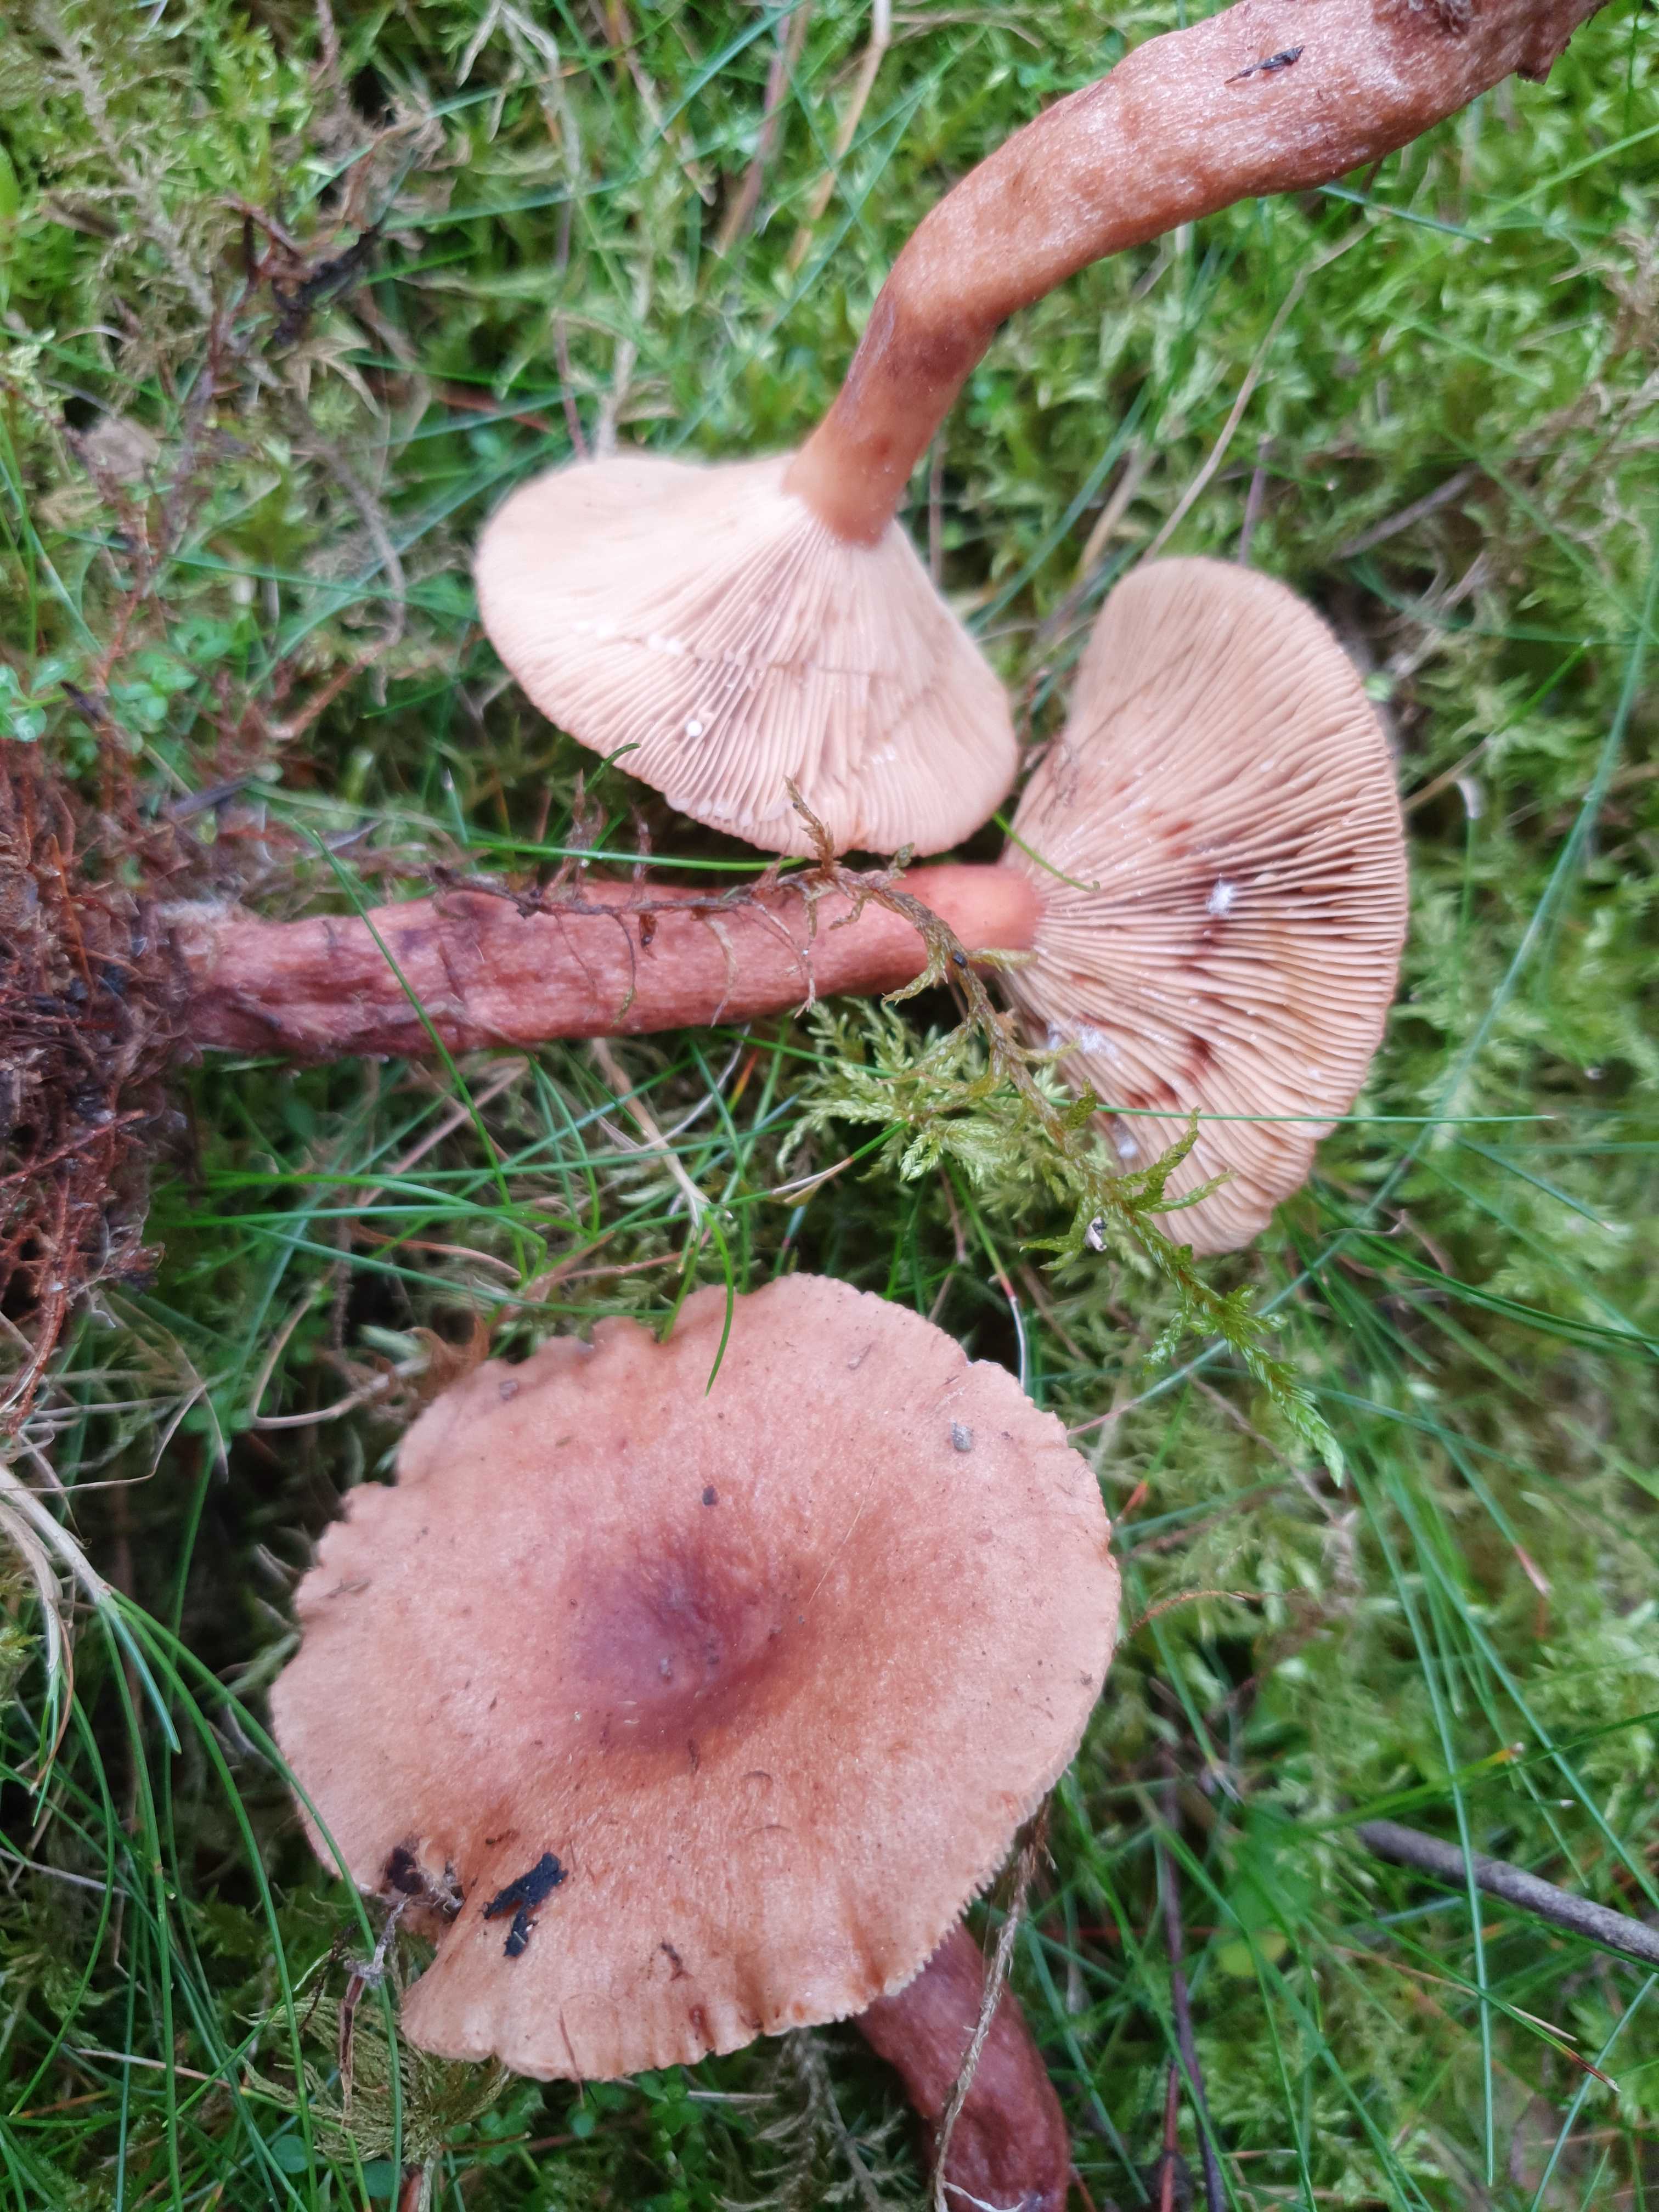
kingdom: Fungi
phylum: Basidiomycota
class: Agaricomycetes
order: Russulales
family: Russulaceae
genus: Lactarius
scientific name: Lactarius quietus
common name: ege-mælkehat
